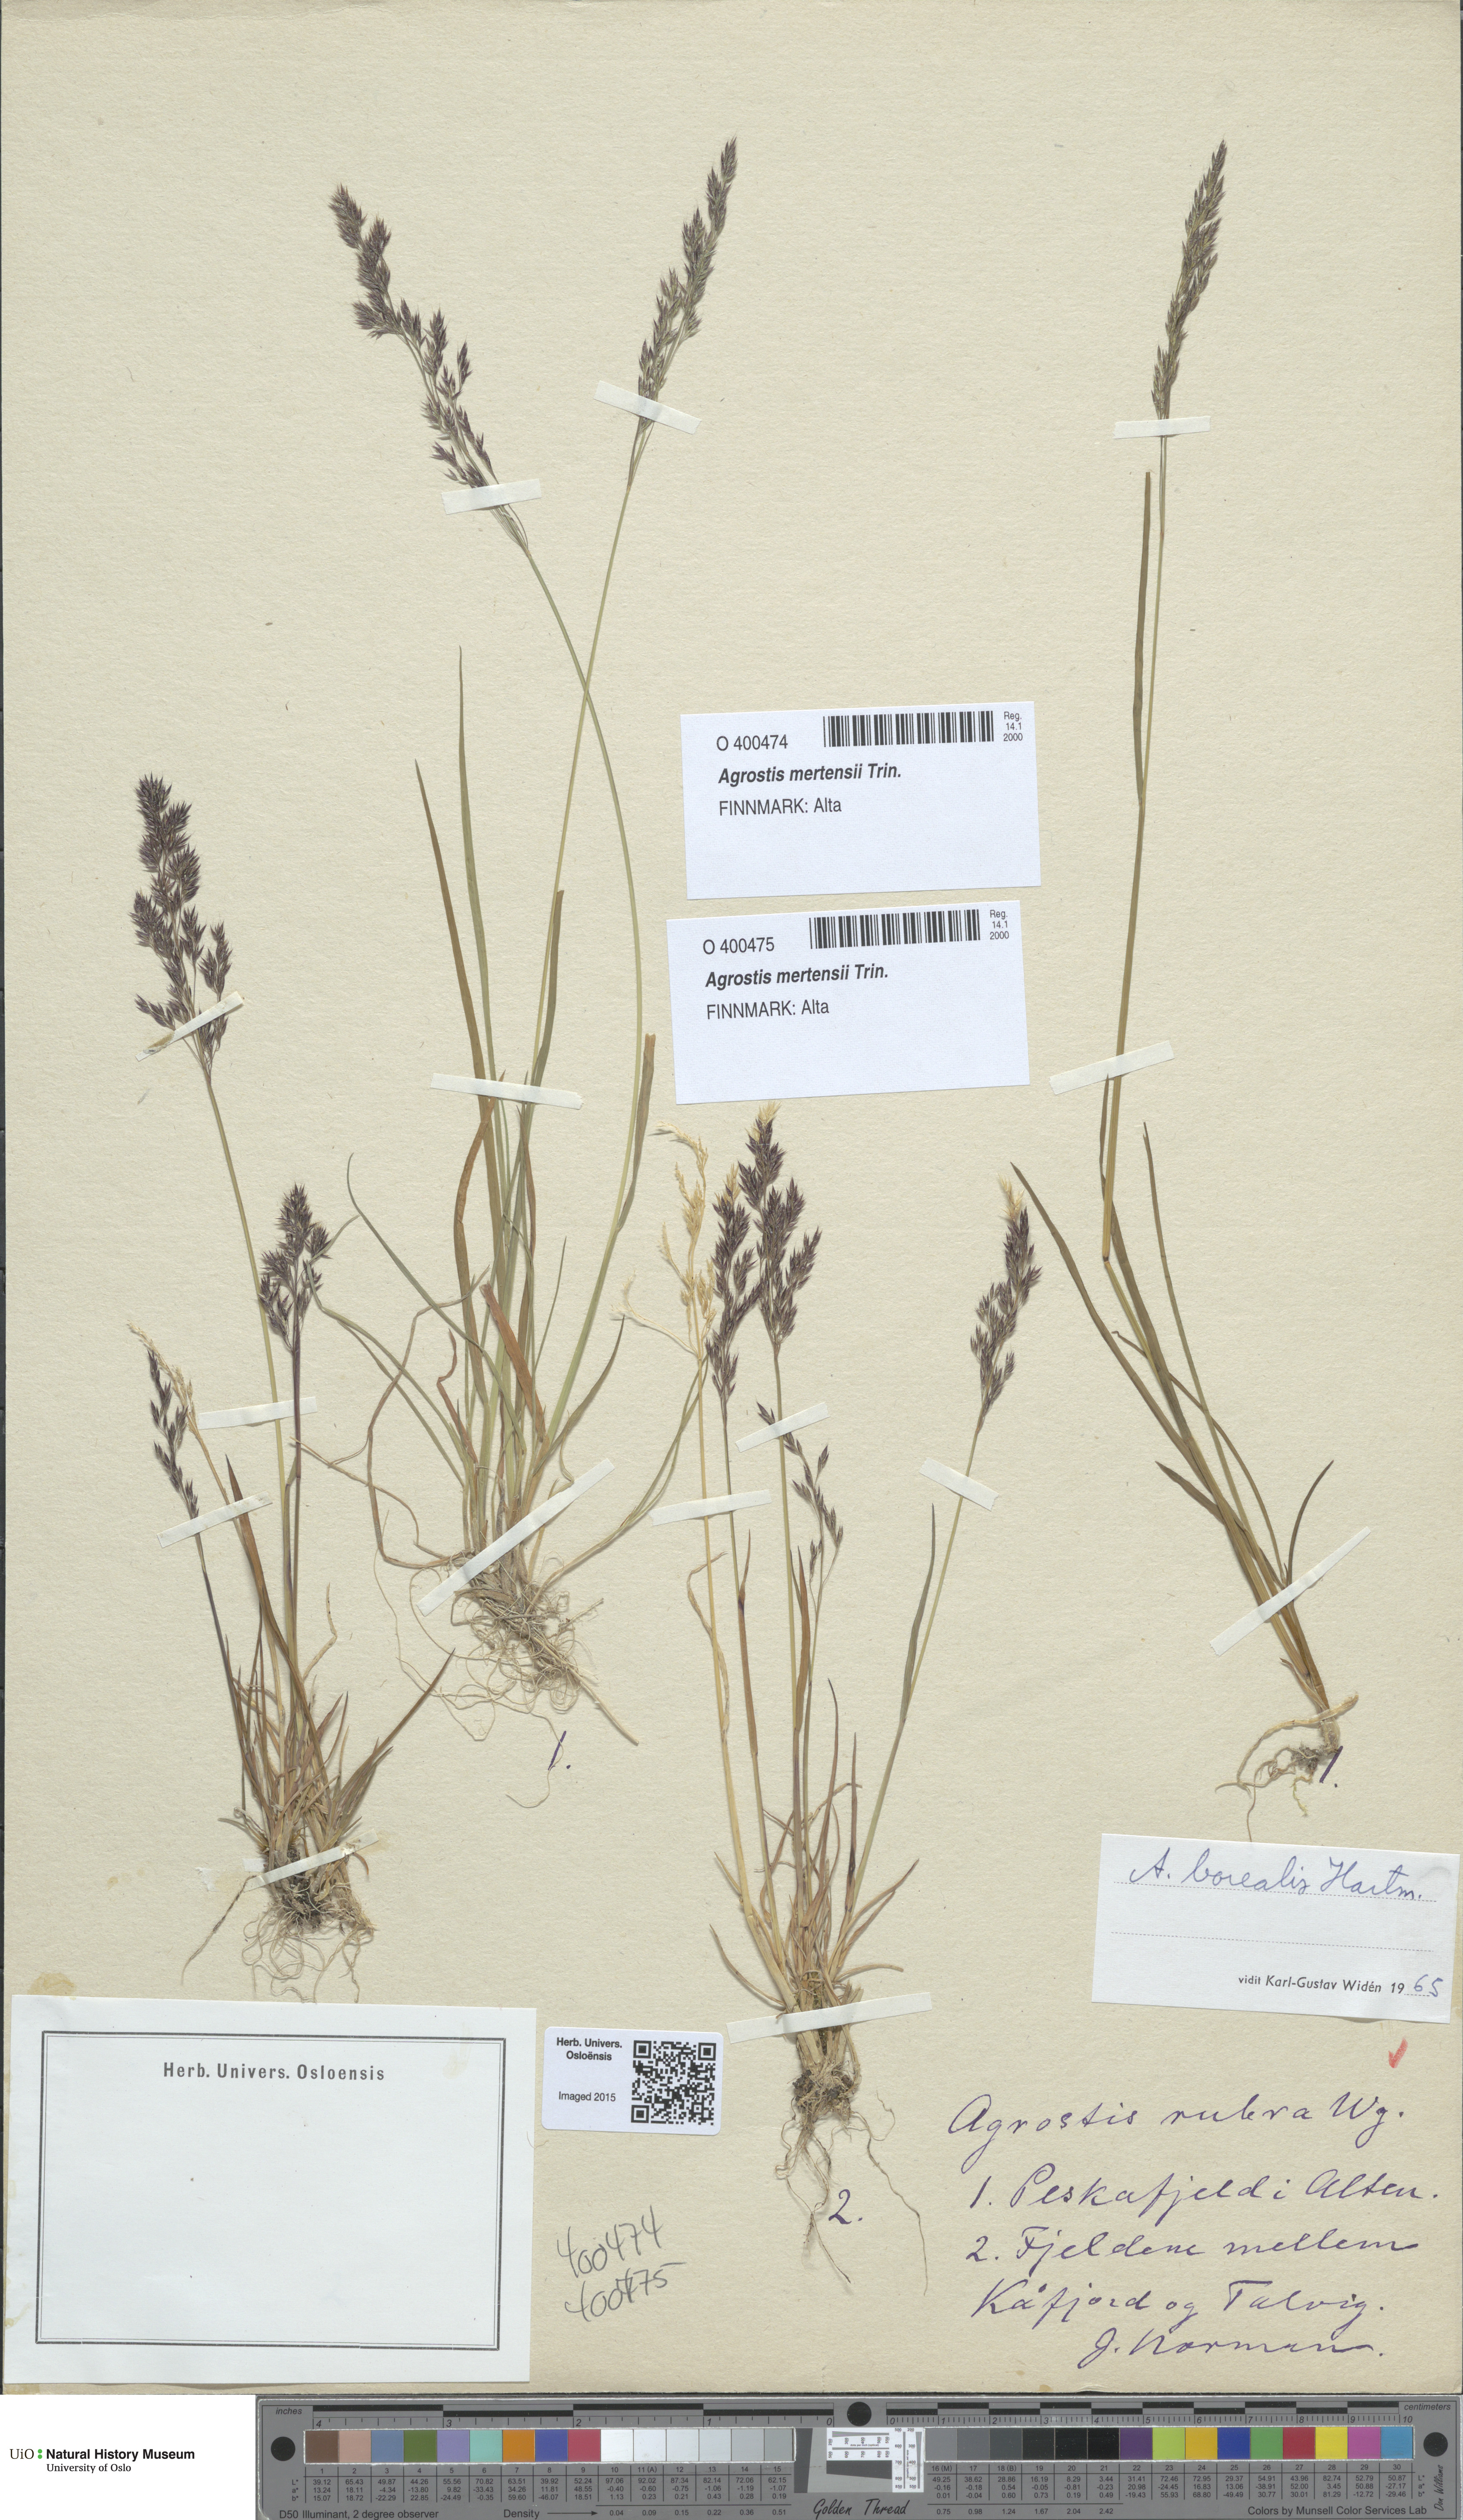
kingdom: Plantae
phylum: Tracheophyta
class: Liliopsida
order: Poales
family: Poaceae
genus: Agrostis
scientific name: Agrostis mertensii
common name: Northern bent
